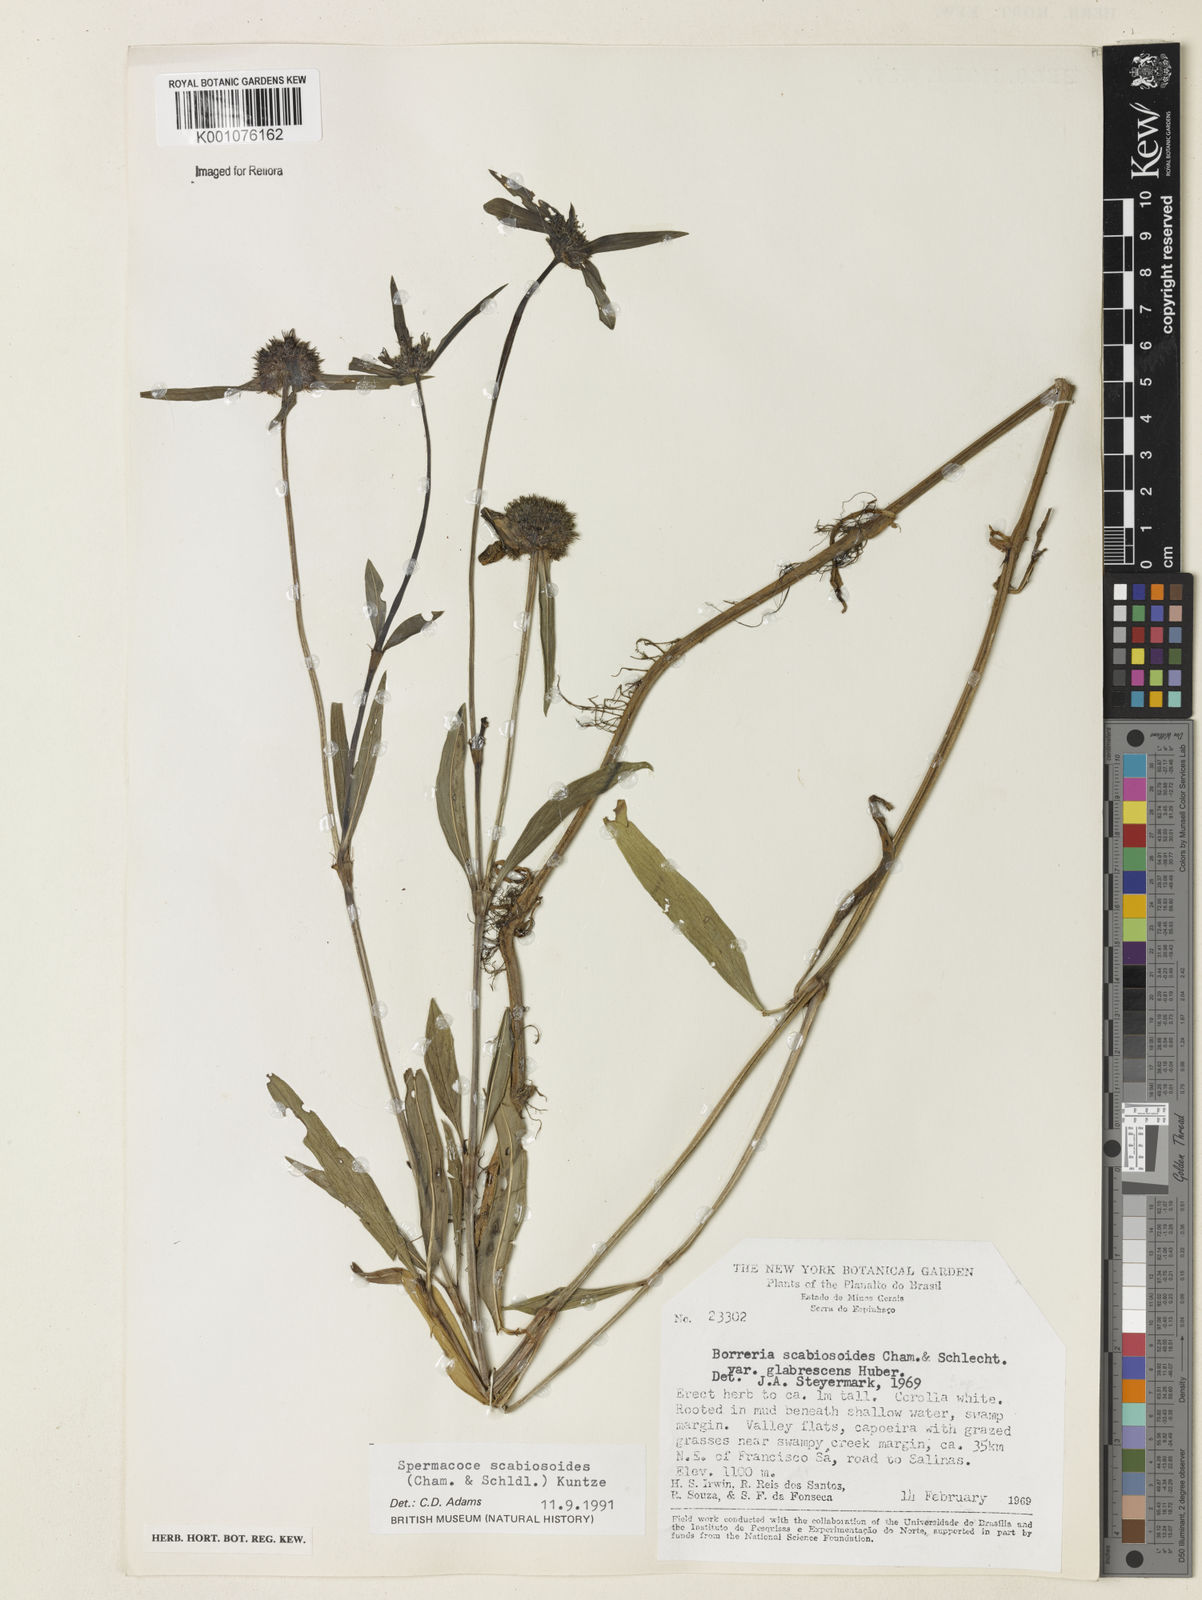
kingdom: Plantae
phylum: Tracheophyta
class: Magnoliopsida
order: Gentianales
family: Rubiaceae
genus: Spermacoce
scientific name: Spermacoce scabiosoides
